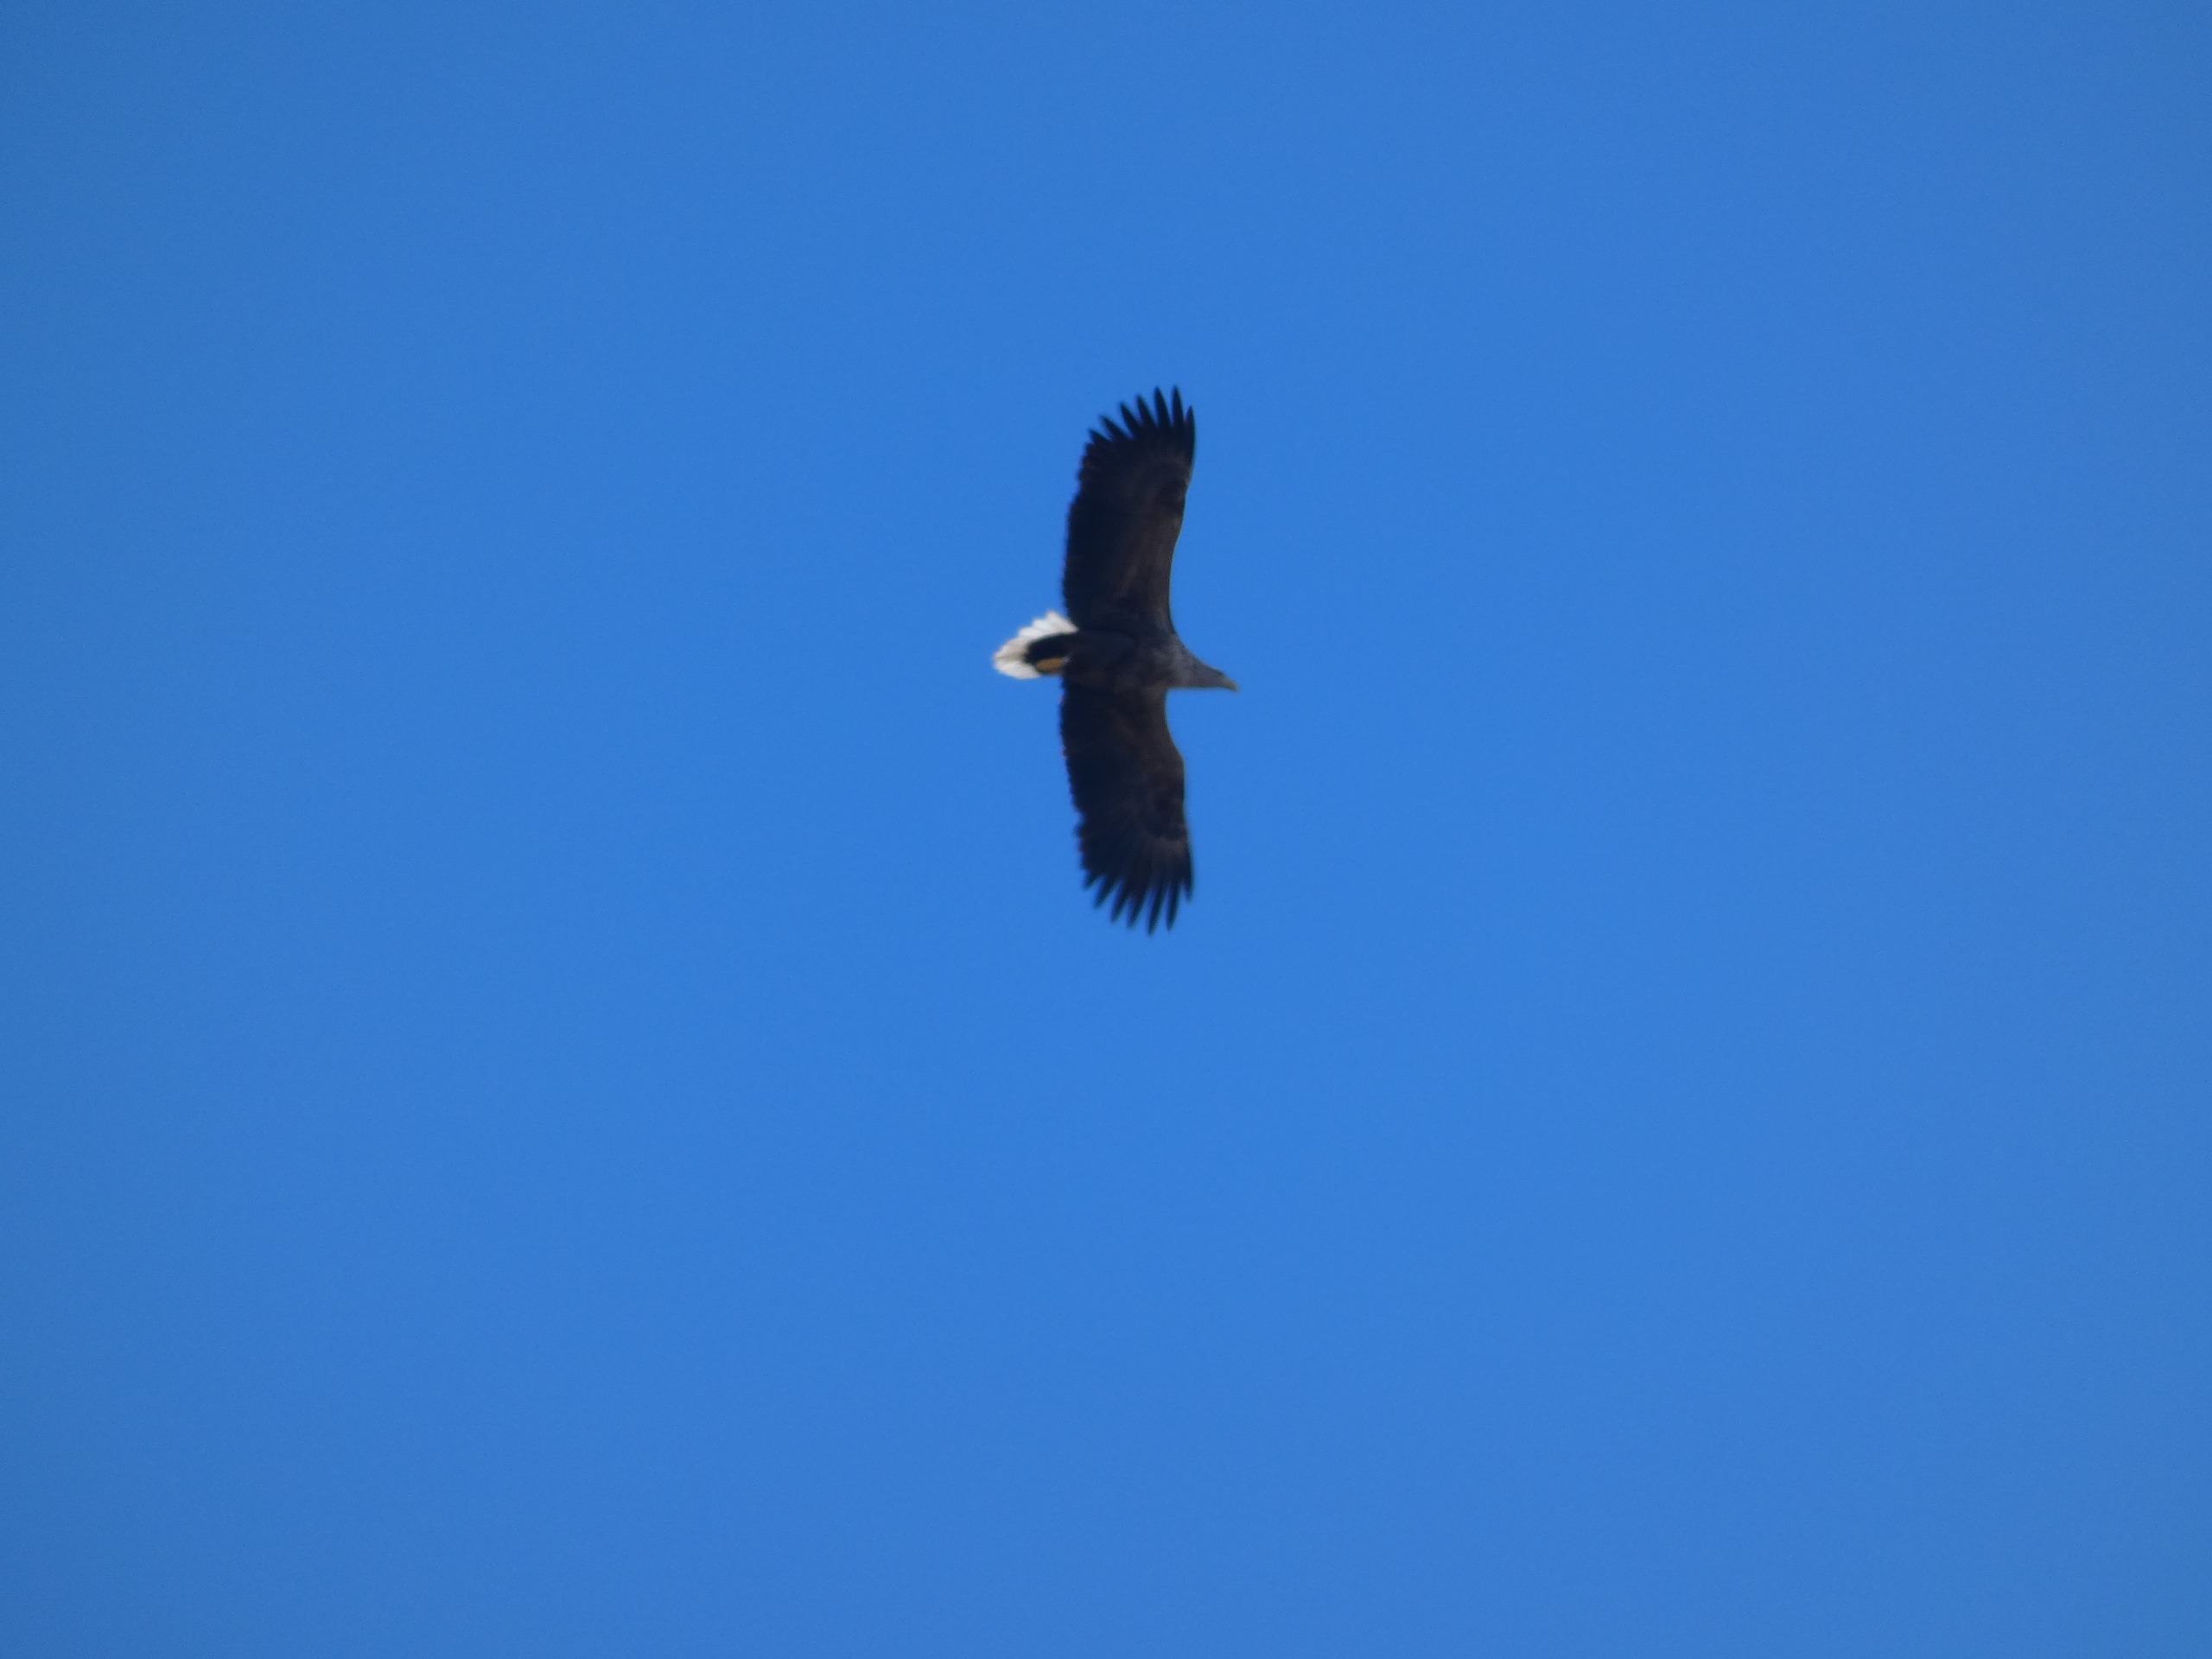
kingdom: Animalia
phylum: Chordata
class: Aves
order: Accipitriformes
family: Accipitridae
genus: Haliaeetus
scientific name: Haliaeetus albicilla
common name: Havørn
